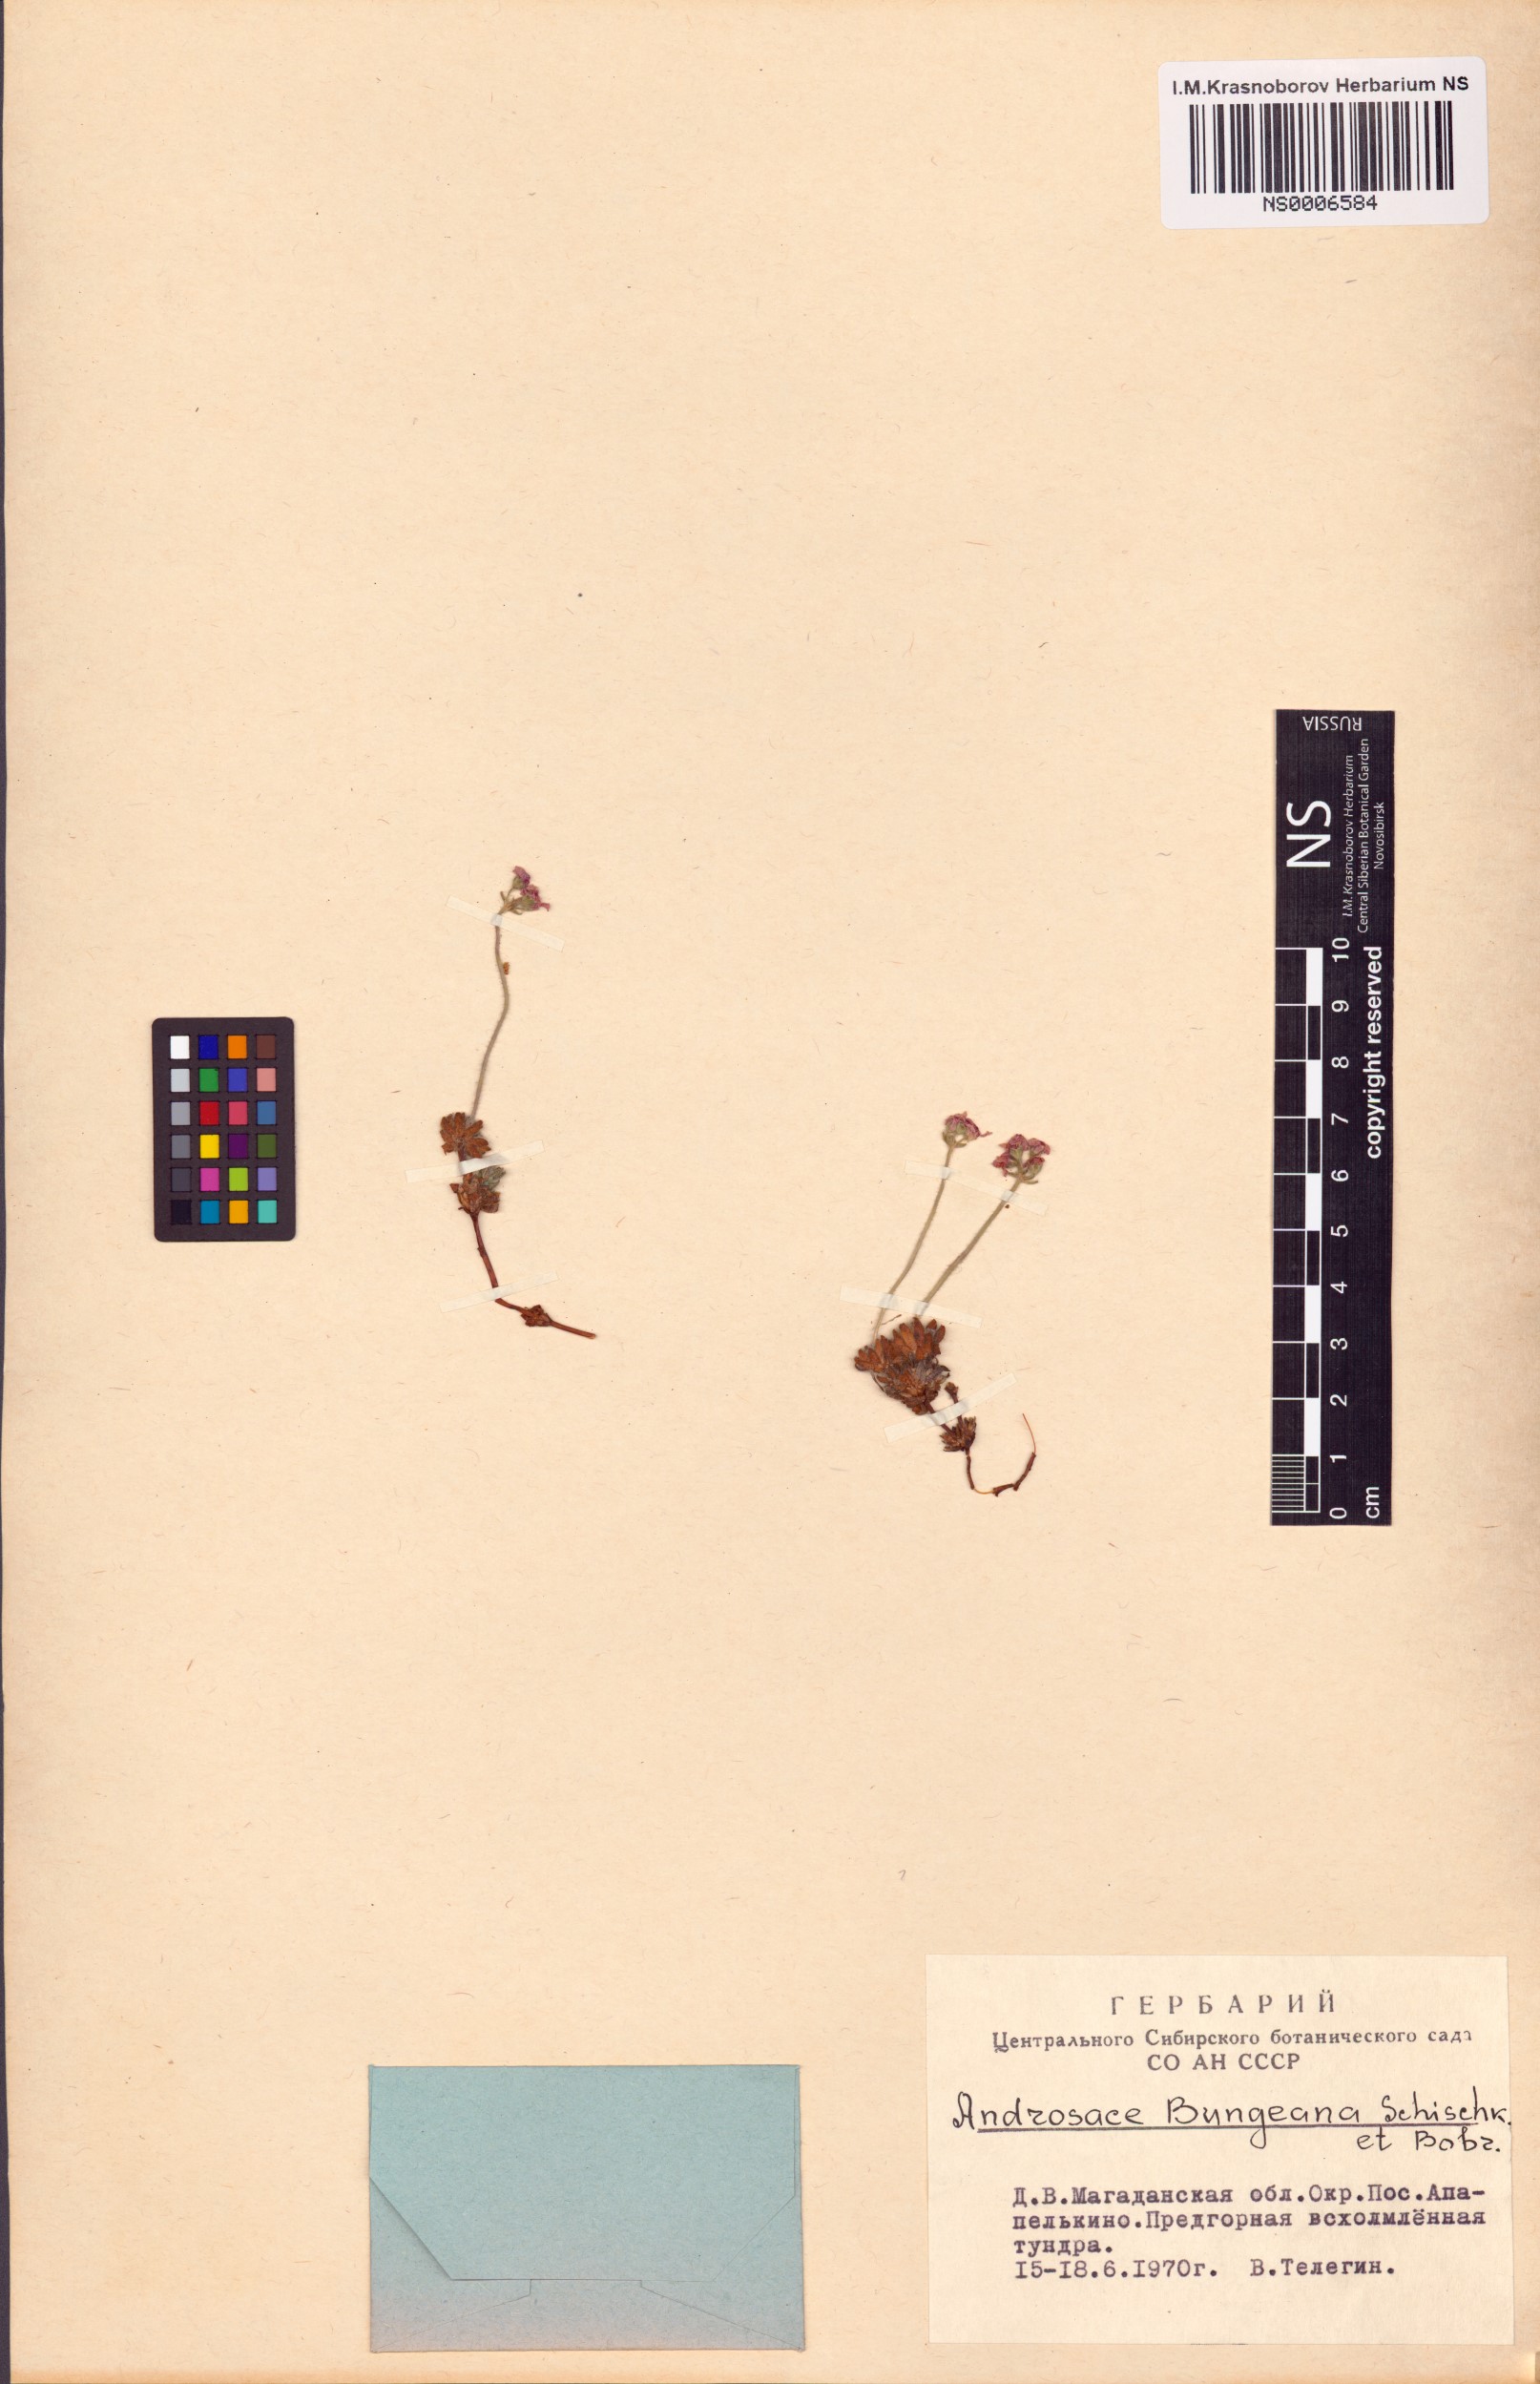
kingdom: Plantae
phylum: Tracheophyta
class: Magnoliopsida
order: Ericales
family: Primulaceae
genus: Androsace
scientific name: Androsace bungeana
